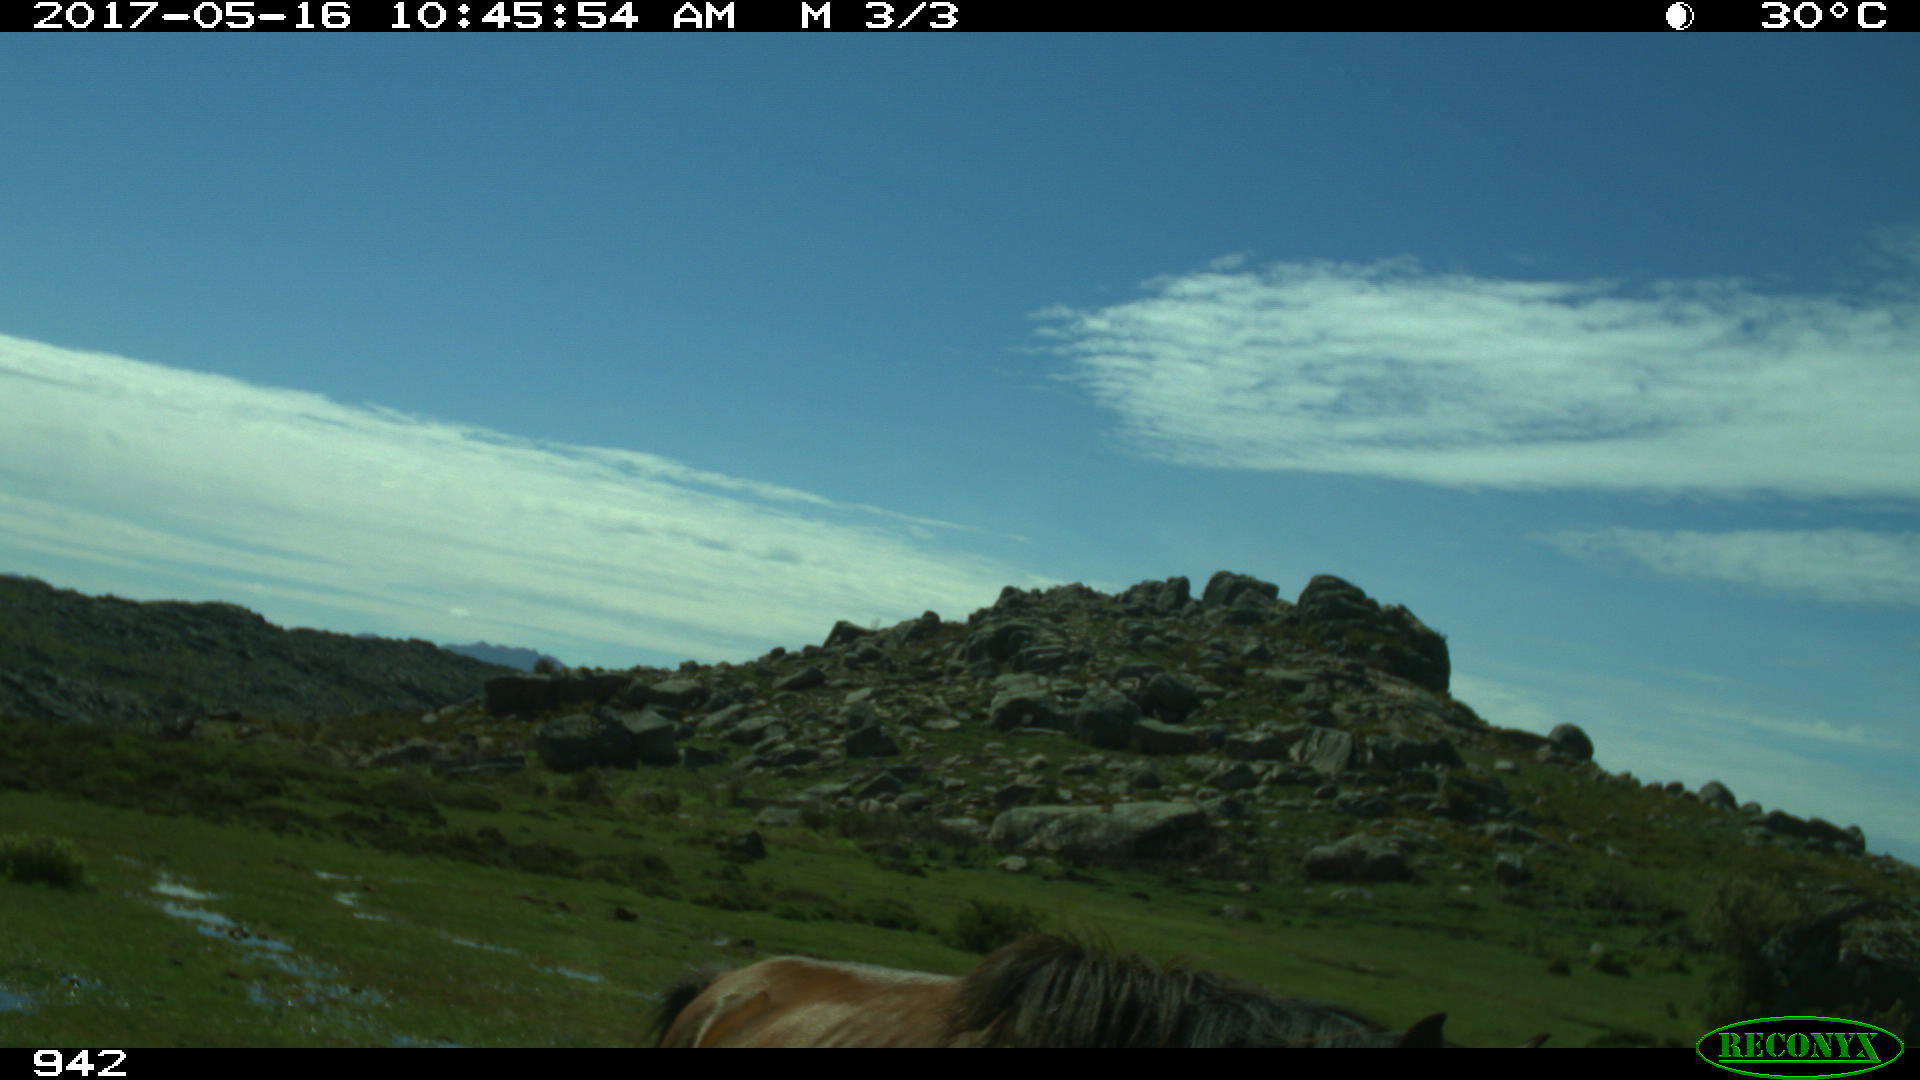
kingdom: Animalia
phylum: Chordata
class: Mammalia
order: Perissodactyla
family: Equidae
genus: Equus
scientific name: Equus caballus
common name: Horse
